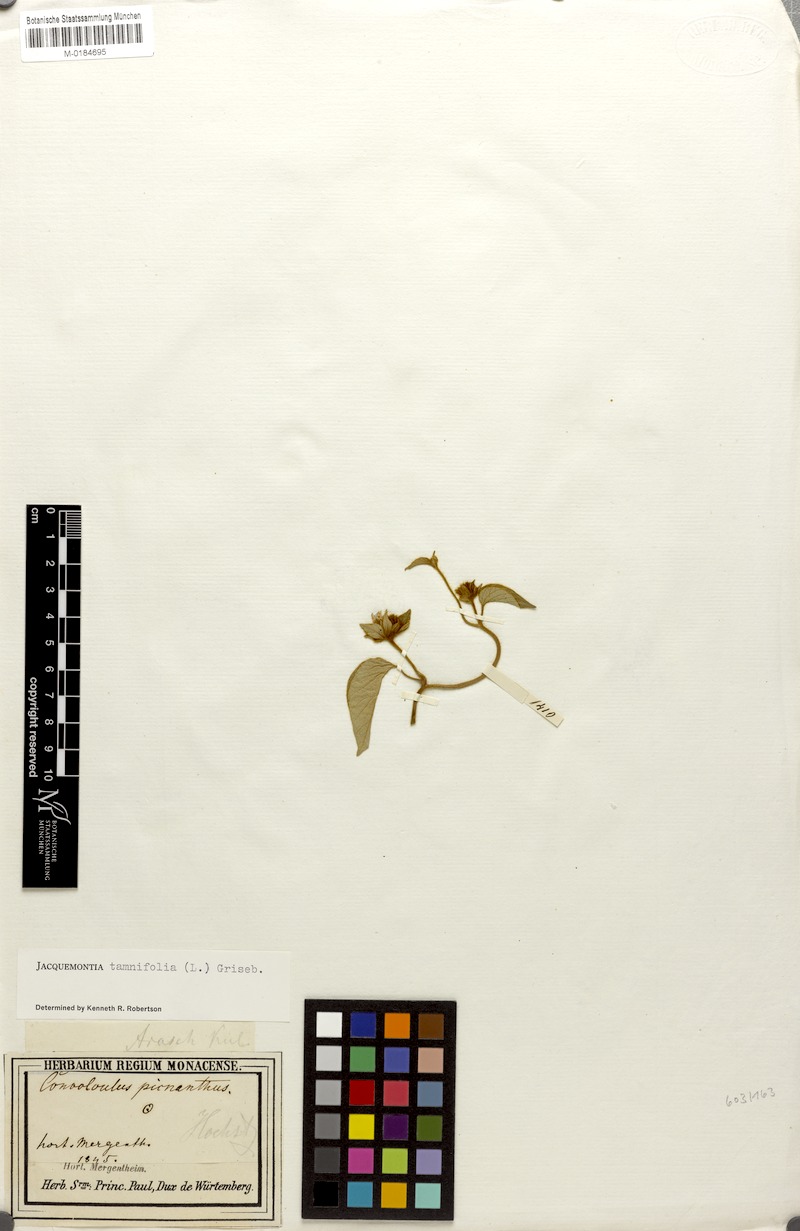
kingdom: Plantae
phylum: Tracheophyta
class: Magnoliopsida
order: Solanales
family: Convolvulaceae
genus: Jacquemontia
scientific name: Jacquemontia tamnifolia
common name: Hairy clustervine
